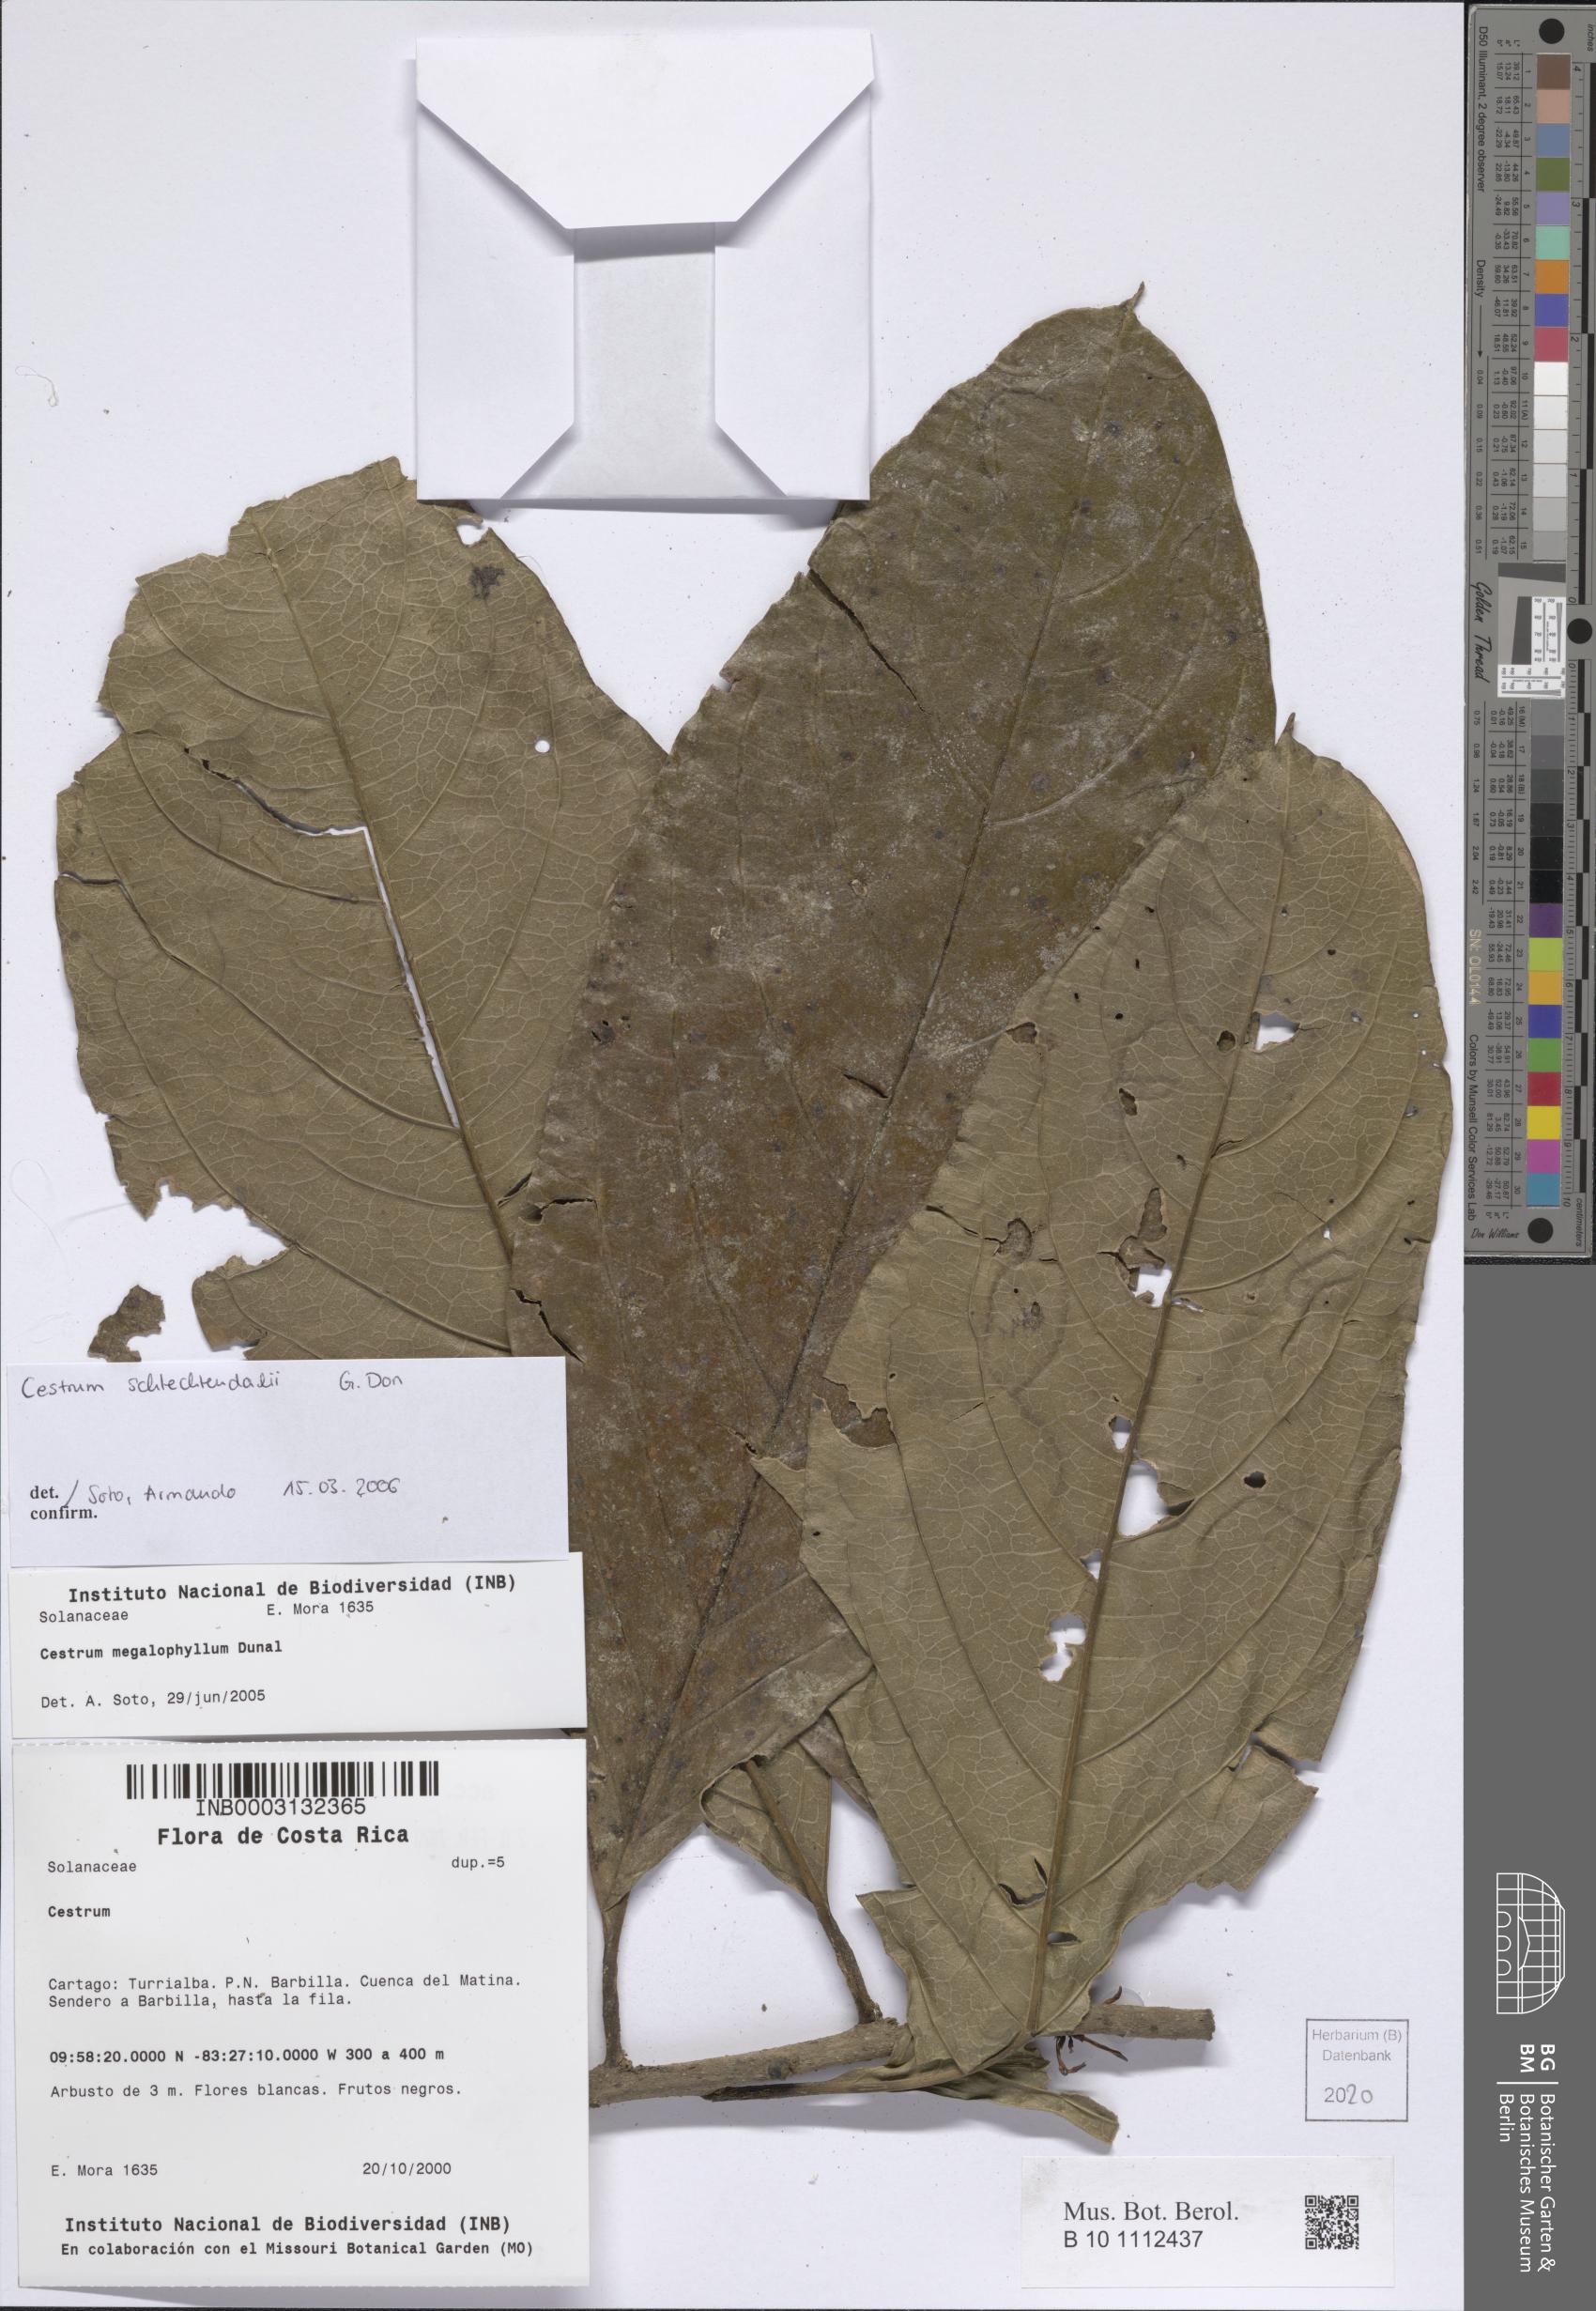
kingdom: Plantae
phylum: Tracheophyta
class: Magnoliopsida
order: Solanales
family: Solanaceae
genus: Cestrum
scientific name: Cestrum schlechtendalii
